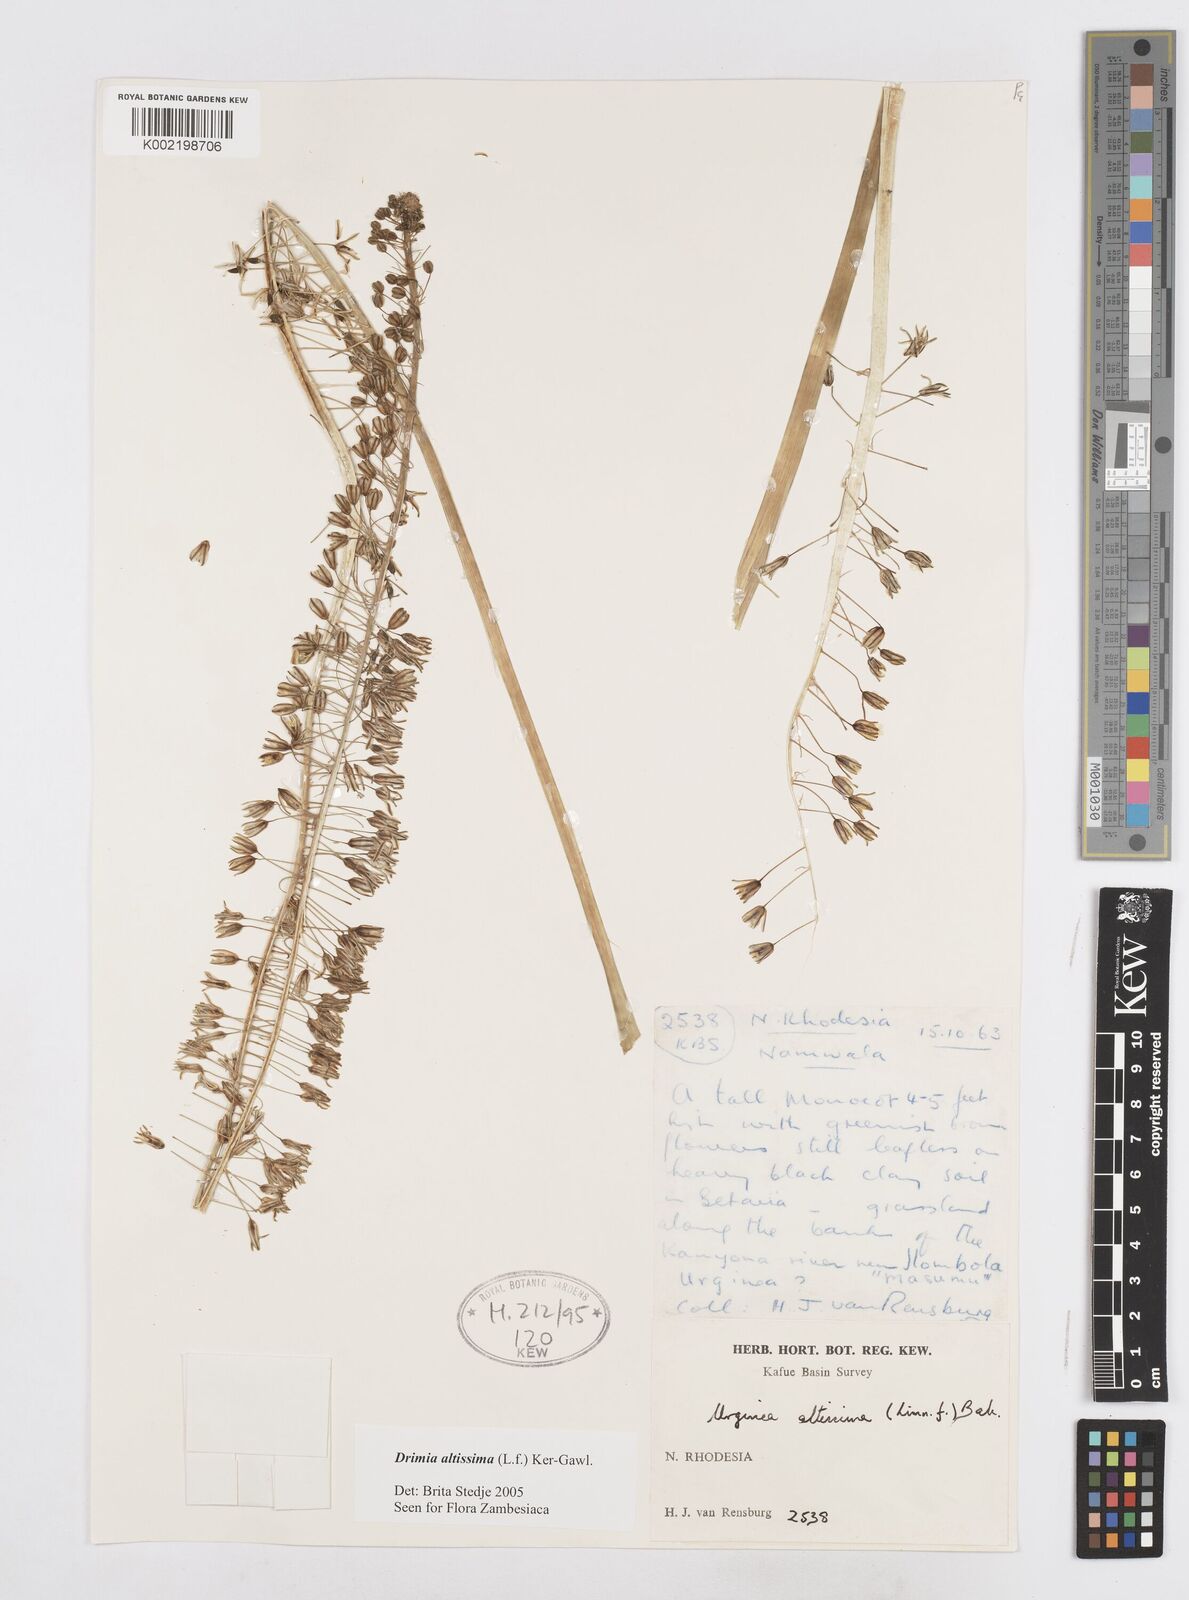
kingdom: Plantae
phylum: Tracheophyta
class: Liliopsida
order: Asparagales
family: Asparagaceae
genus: Drimia
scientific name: Drimia
